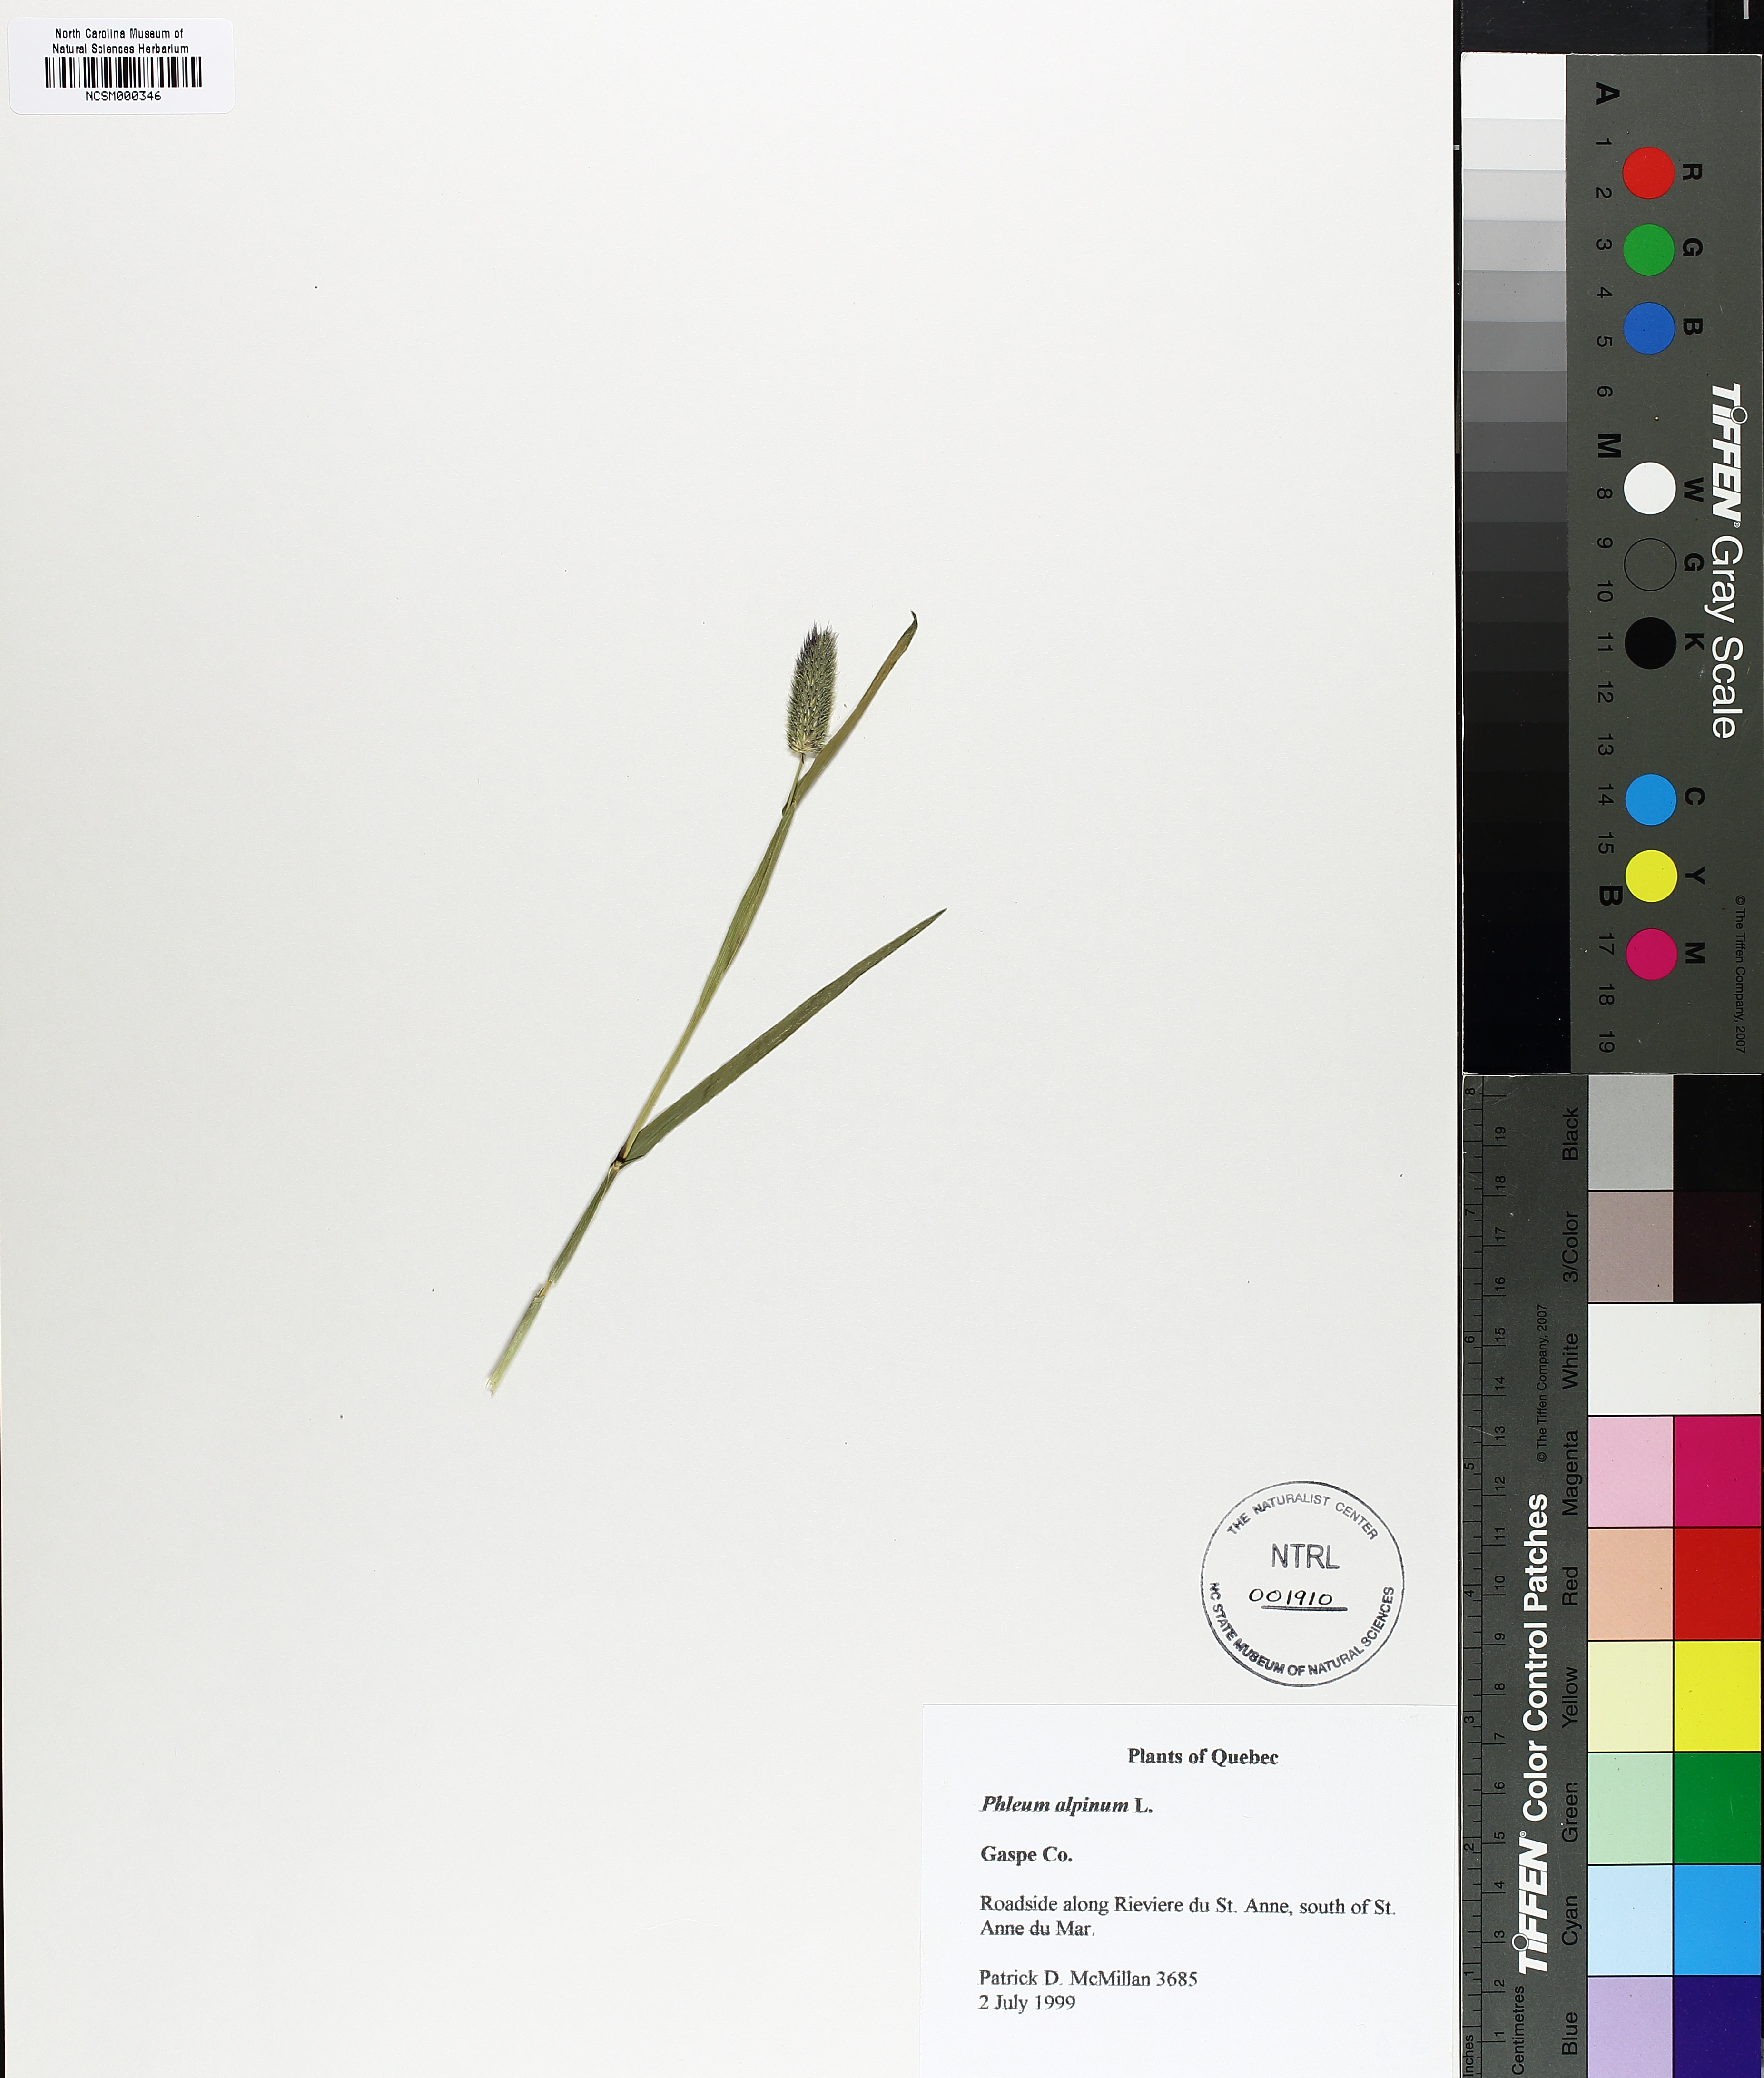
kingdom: Plantae
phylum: Tracheophyta
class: Liliopsida
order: Poales
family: Poaceae
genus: Phleum
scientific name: Phleum alpinum
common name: Alpine cat's-tail
